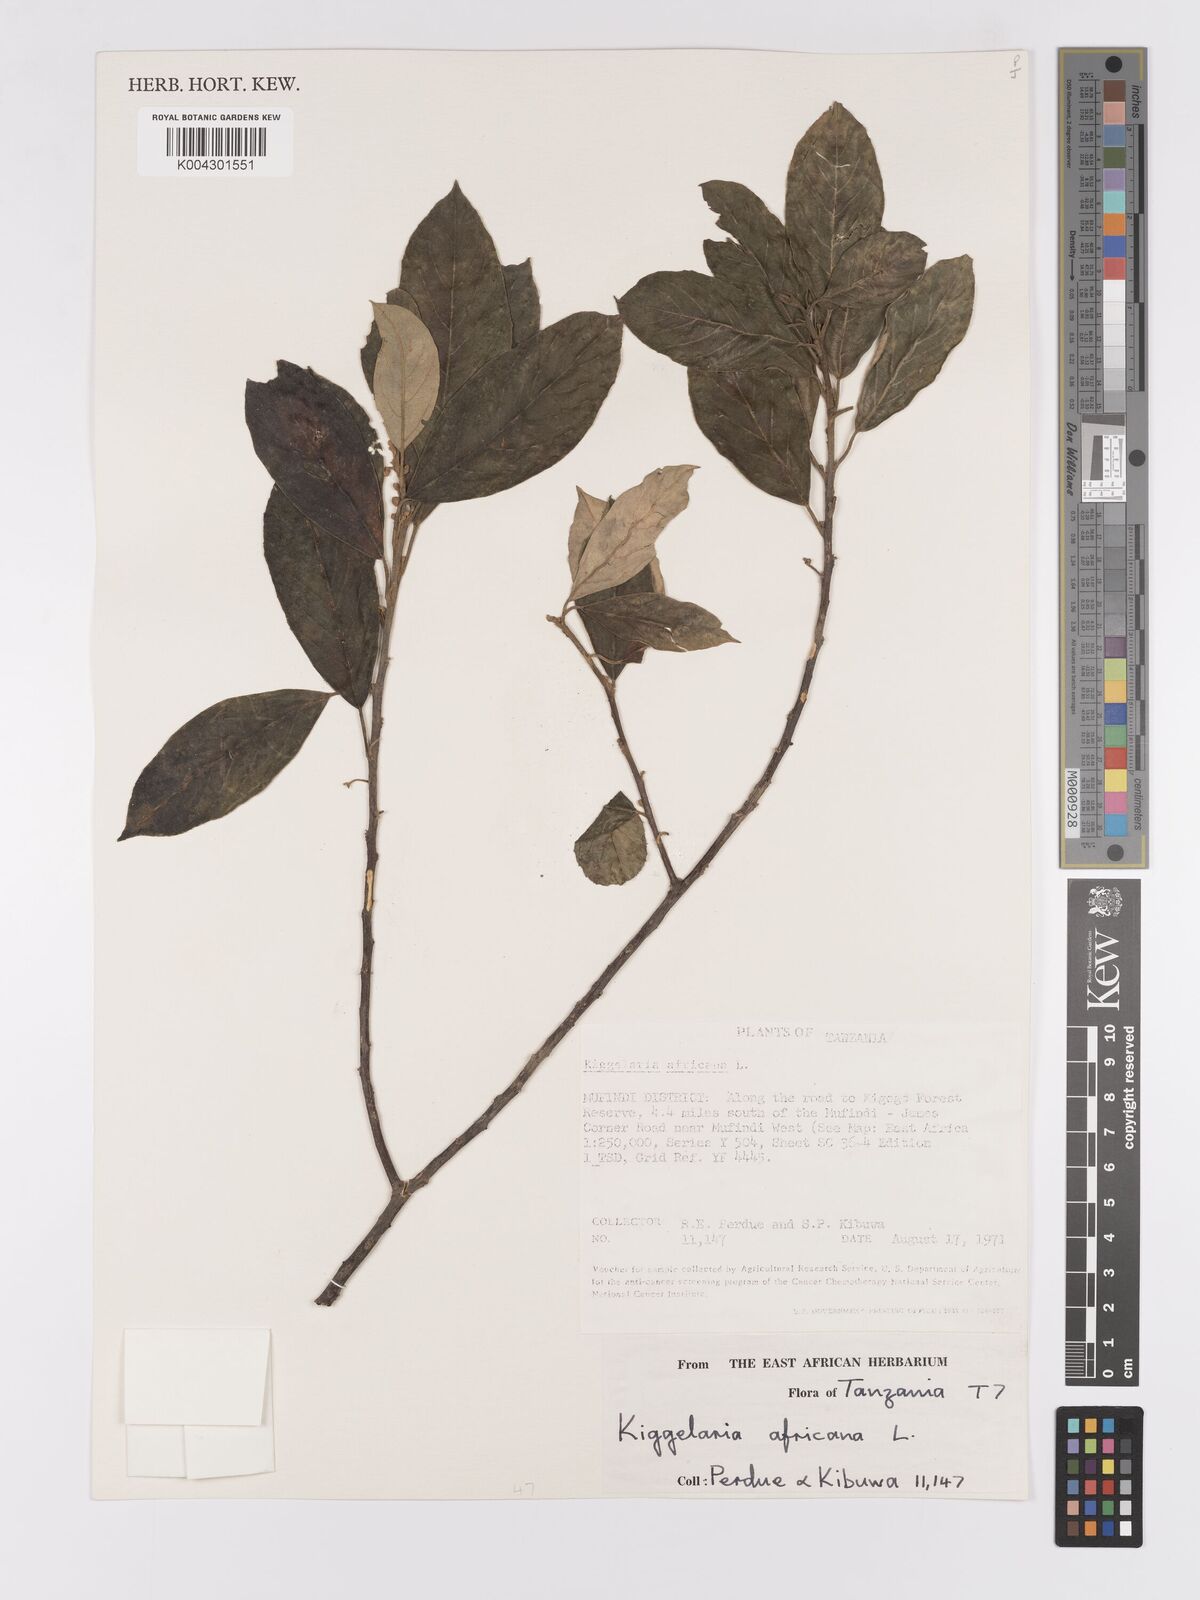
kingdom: Plantae
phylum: Tracheophyta
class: Magnoliopsida
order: Malpighiales
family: Achariaceae
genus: Kiggelaria
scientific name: Kiggelaria africana
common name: Wild peach
